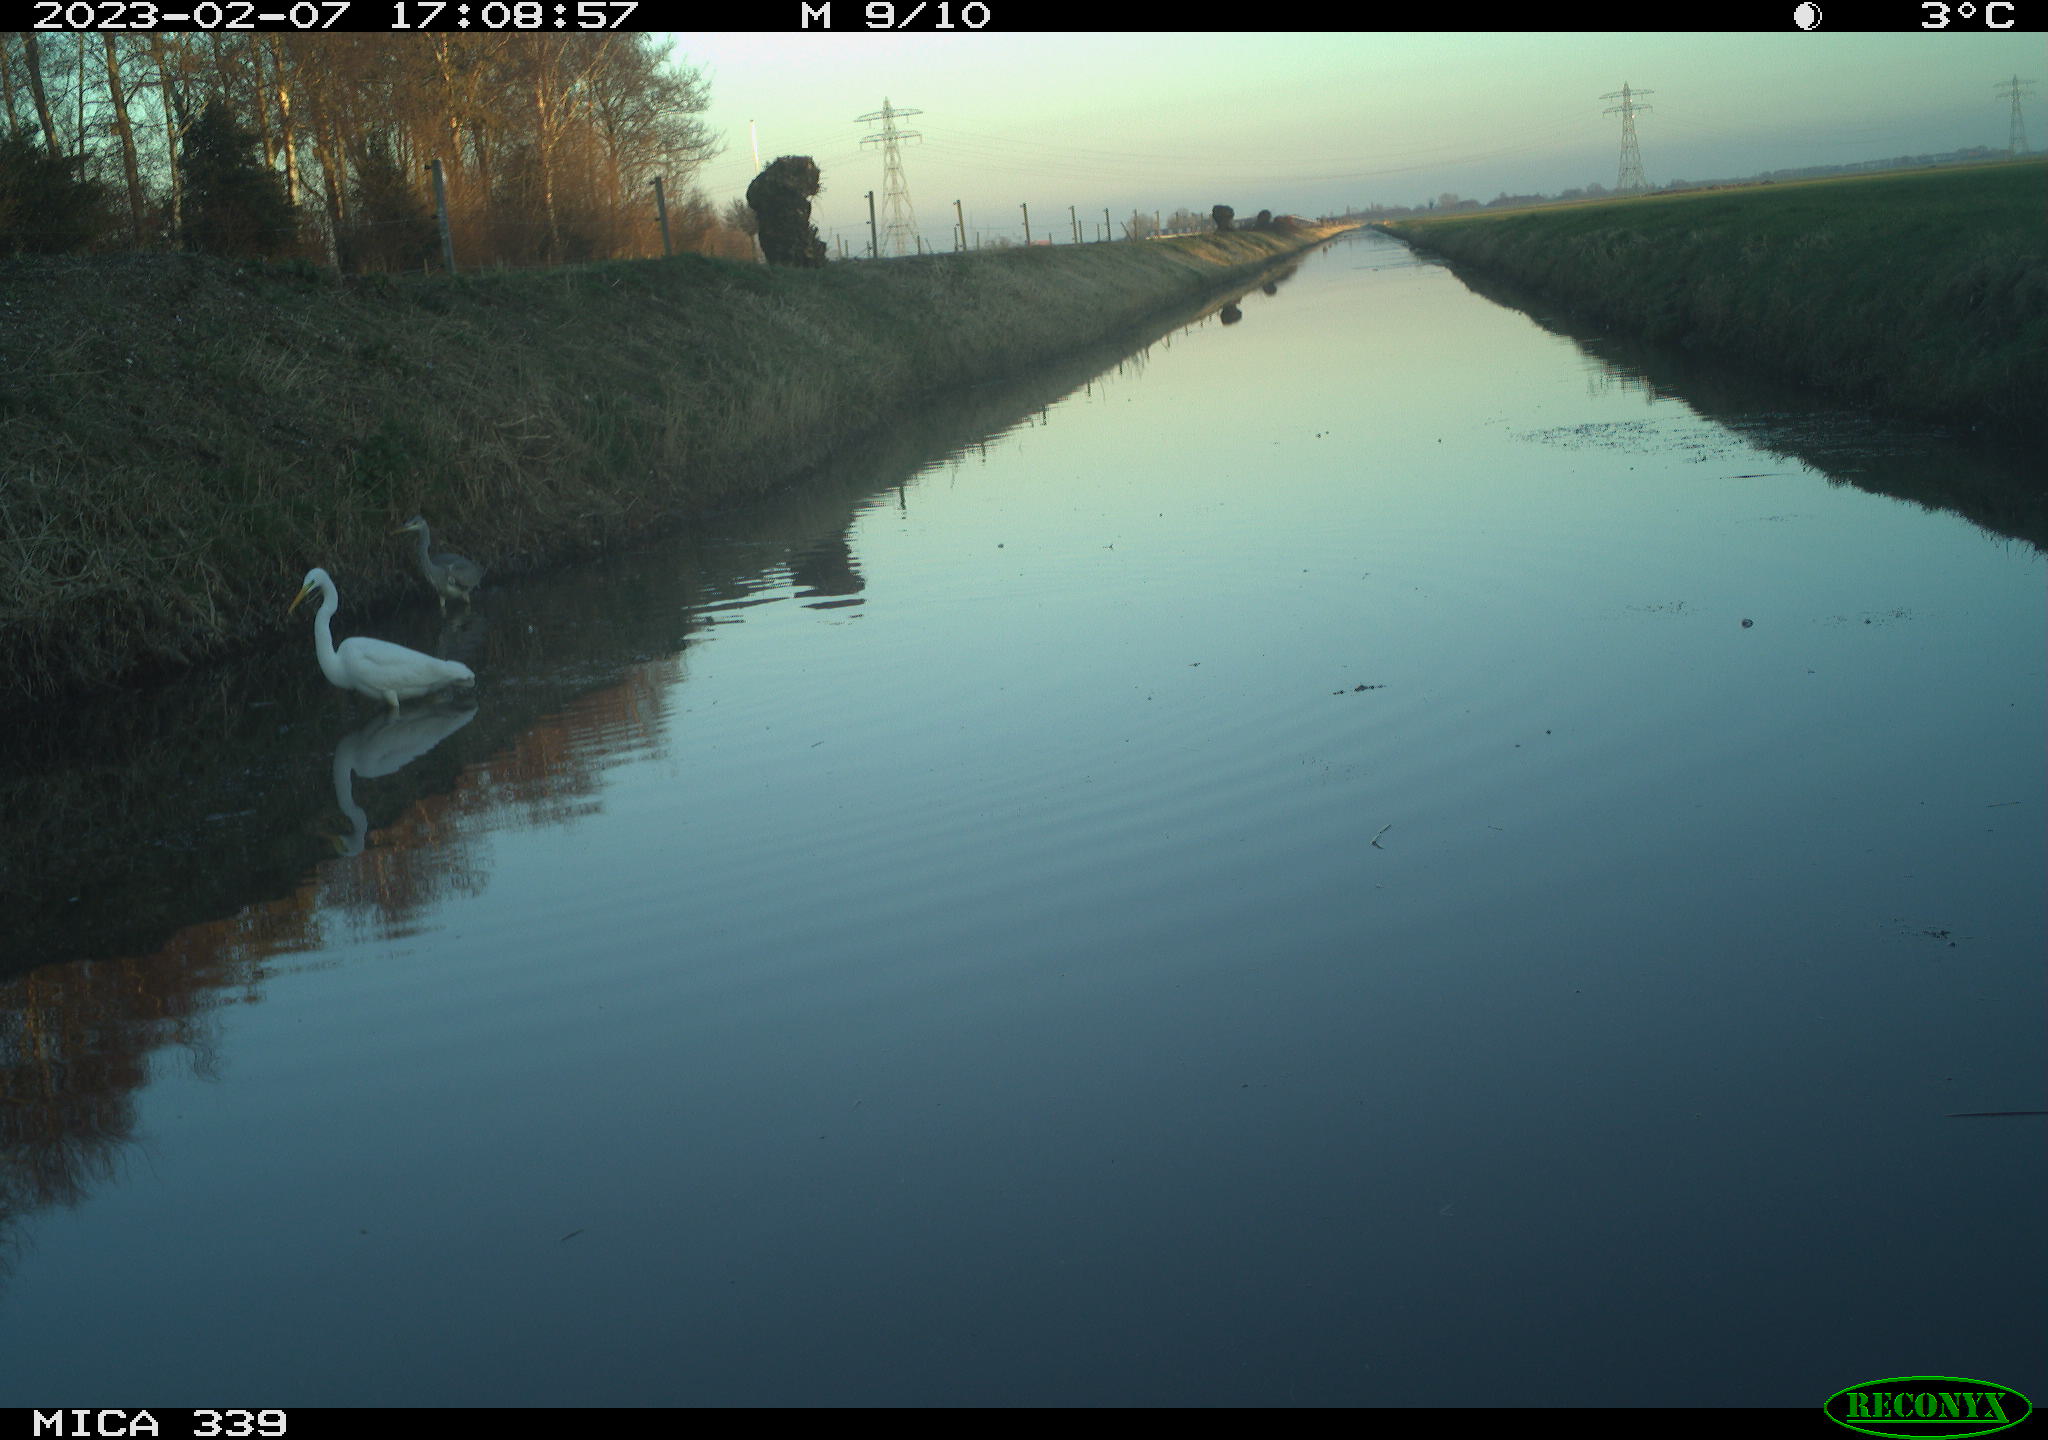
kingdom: Animalia
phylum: Chordata
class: Aves
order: Pelecaniformes
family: Ardeidae
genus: Ardea
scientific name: Ardea alba
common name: Great egret
